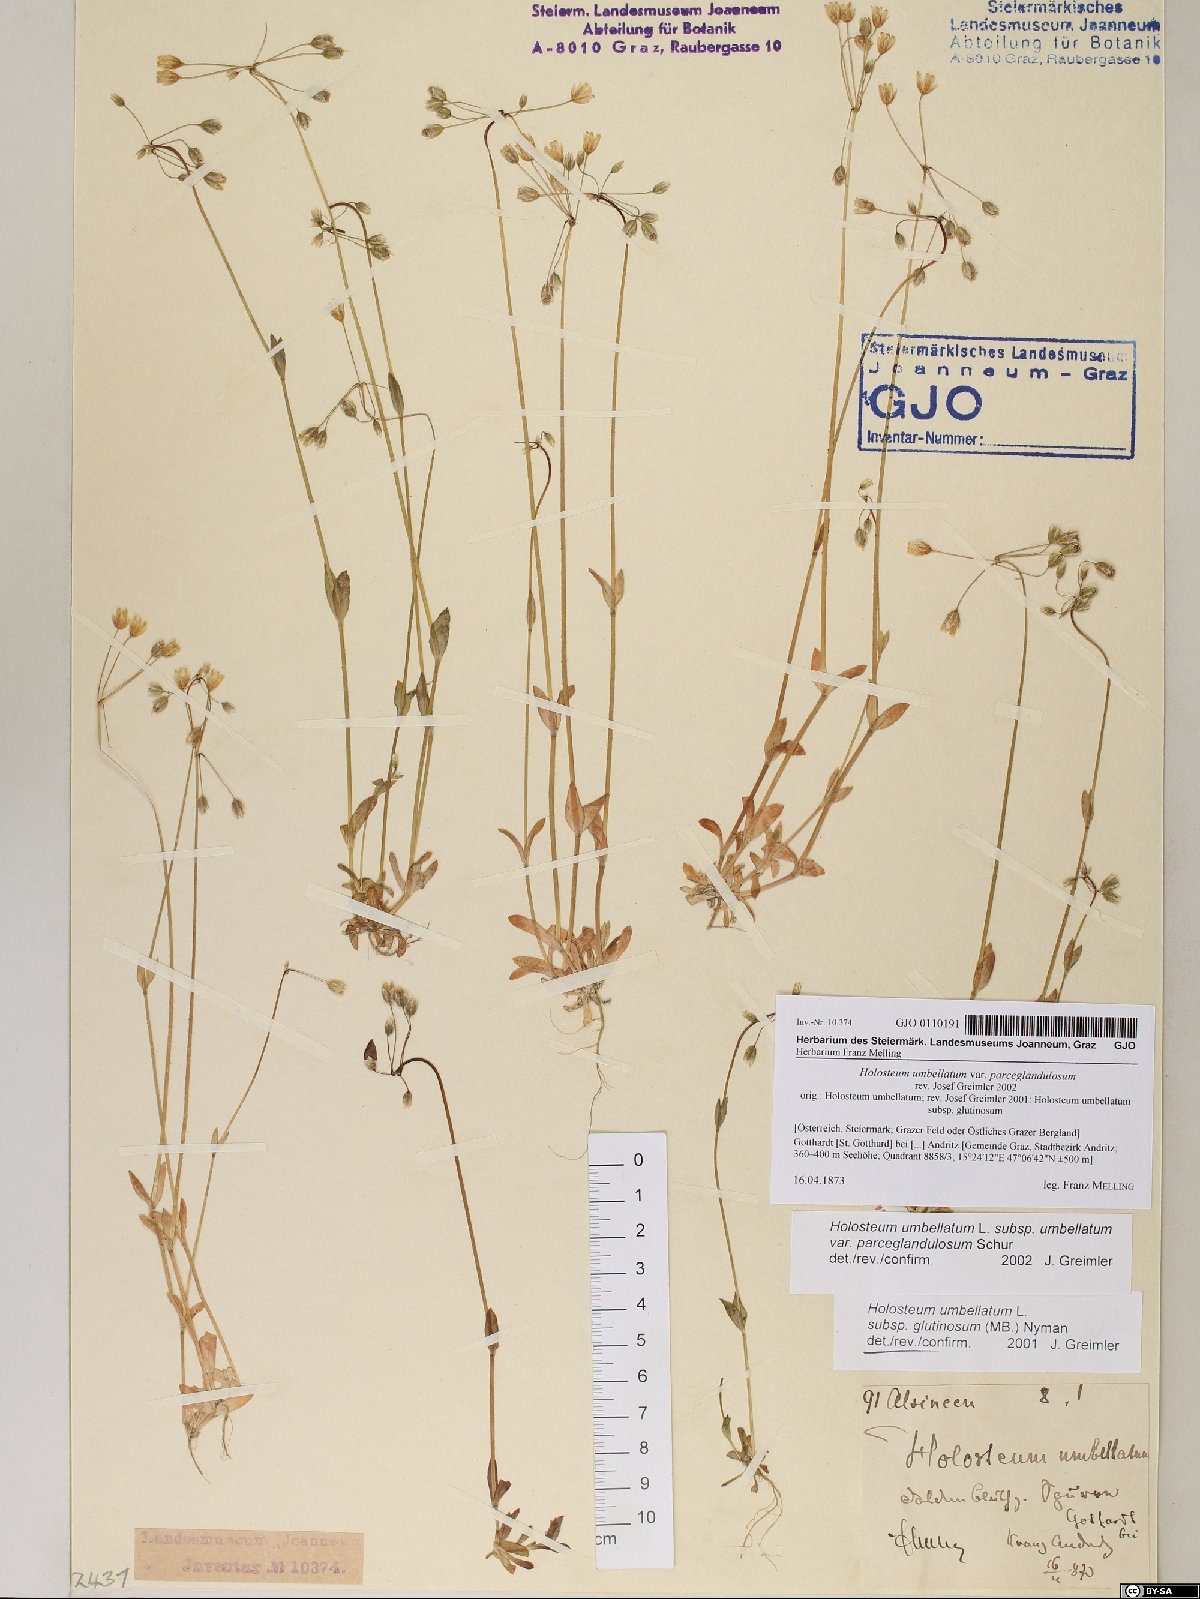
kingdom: Plantae
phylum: Tracheophyta
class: Magnoliopsida
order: Caryophyllales
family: Caryophyllaceae
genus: Holosteum
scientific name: Holosteum umbellatum
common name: Jagged chickweed
